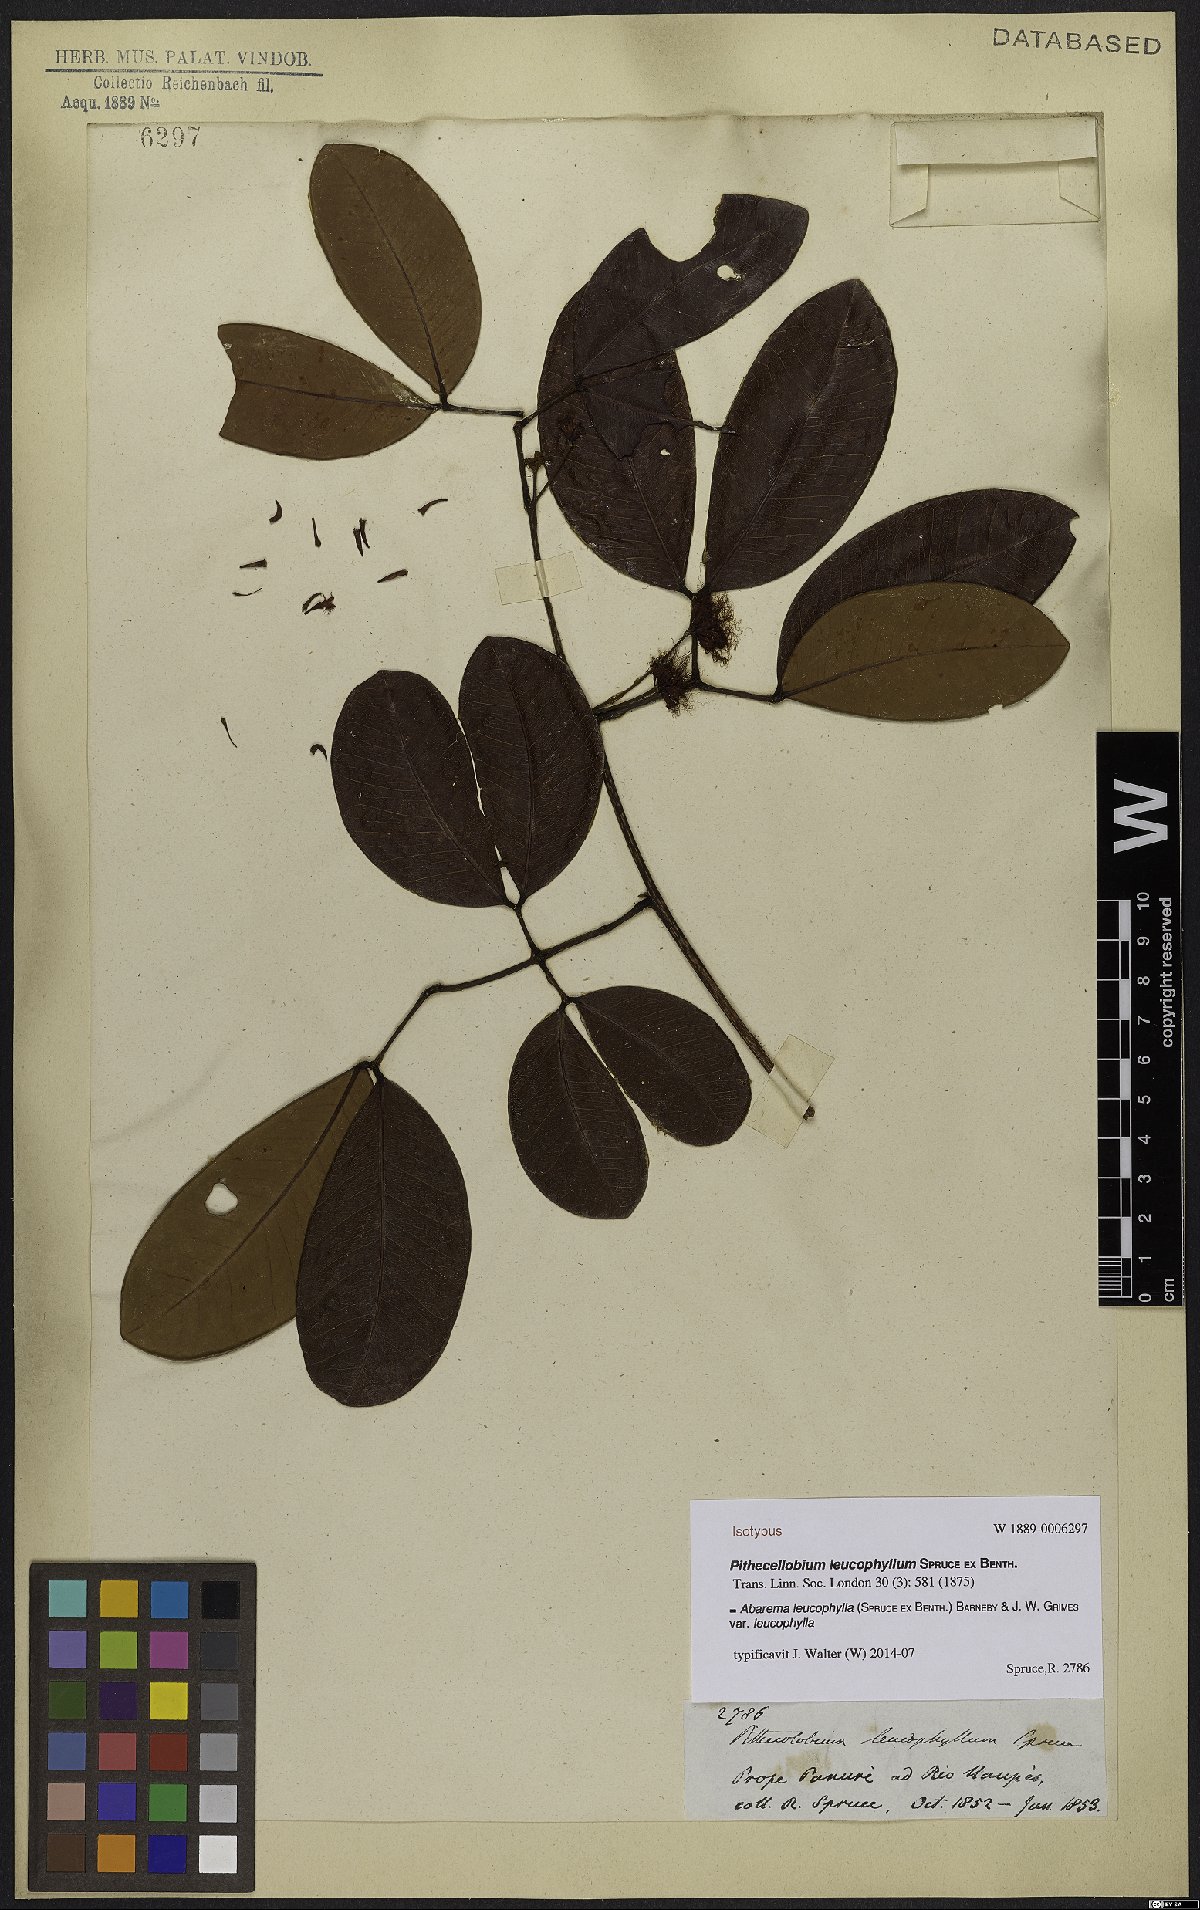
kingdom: Plantae
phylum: Tracheophyta
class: Magnoliopsida
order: Fabales
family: Fabaceae
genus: Jupunba
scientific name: Jupunba leucophylla
